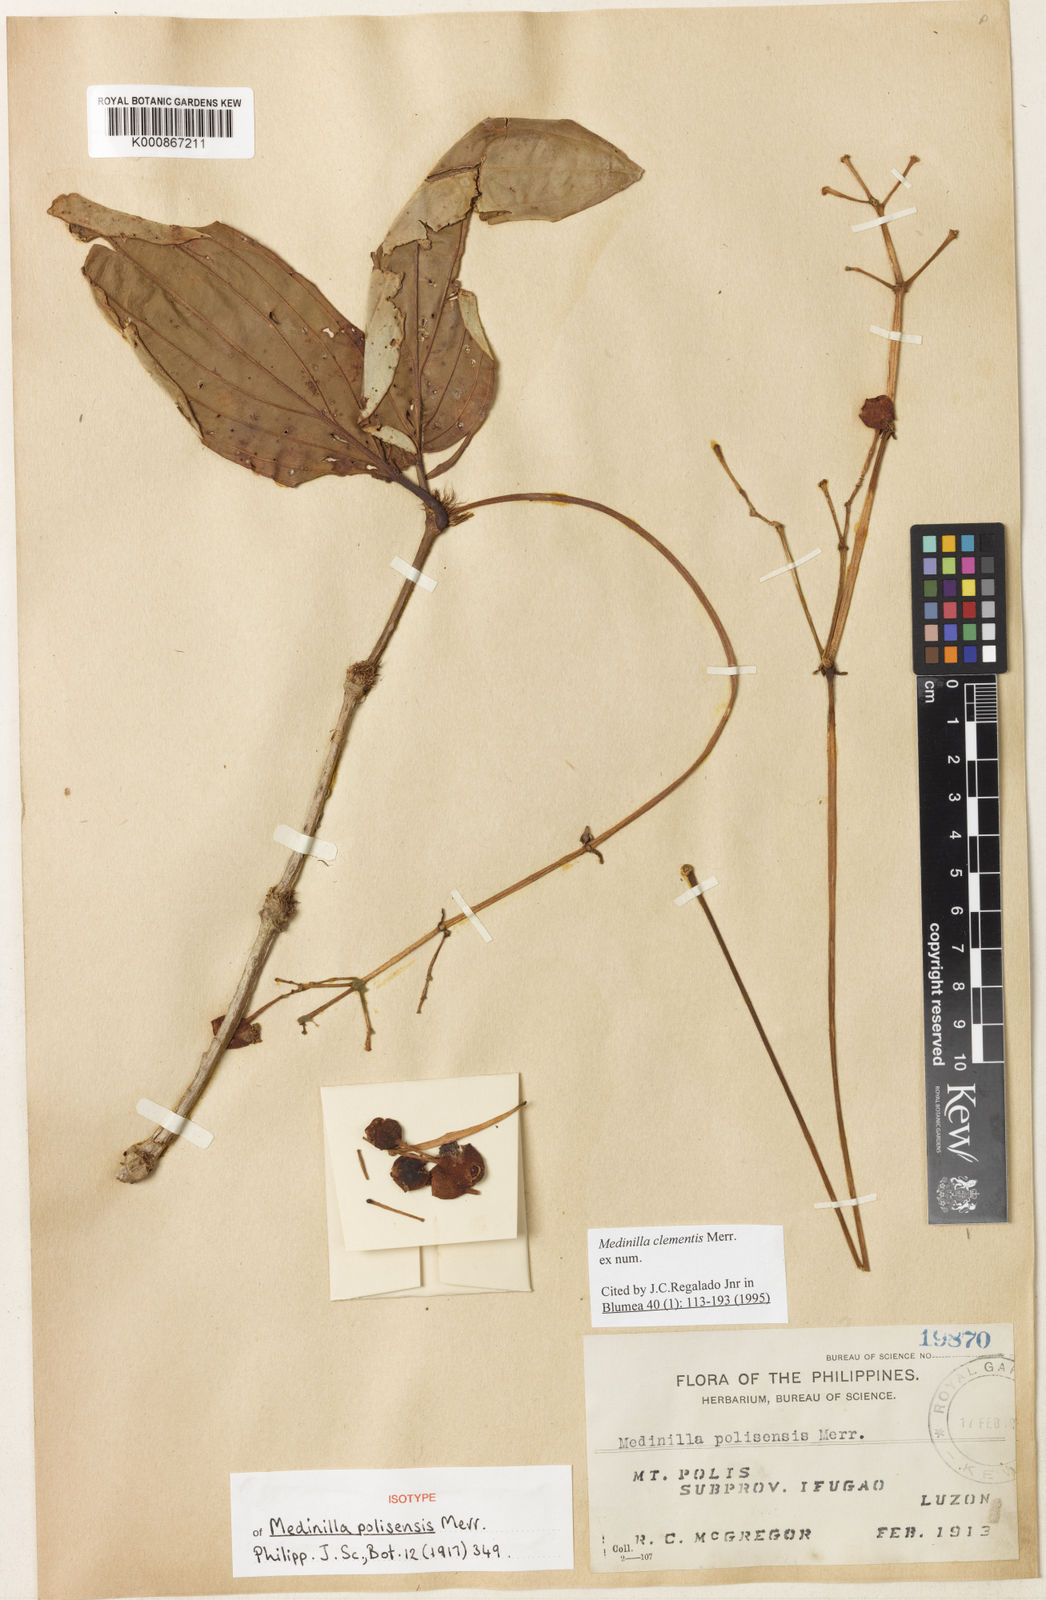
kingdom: Plantae
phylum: Tracheophyta
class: Magnoliopsida
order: Myrtales
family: Melastomataceae
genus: Medinilla
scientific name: Medinilla clementis
